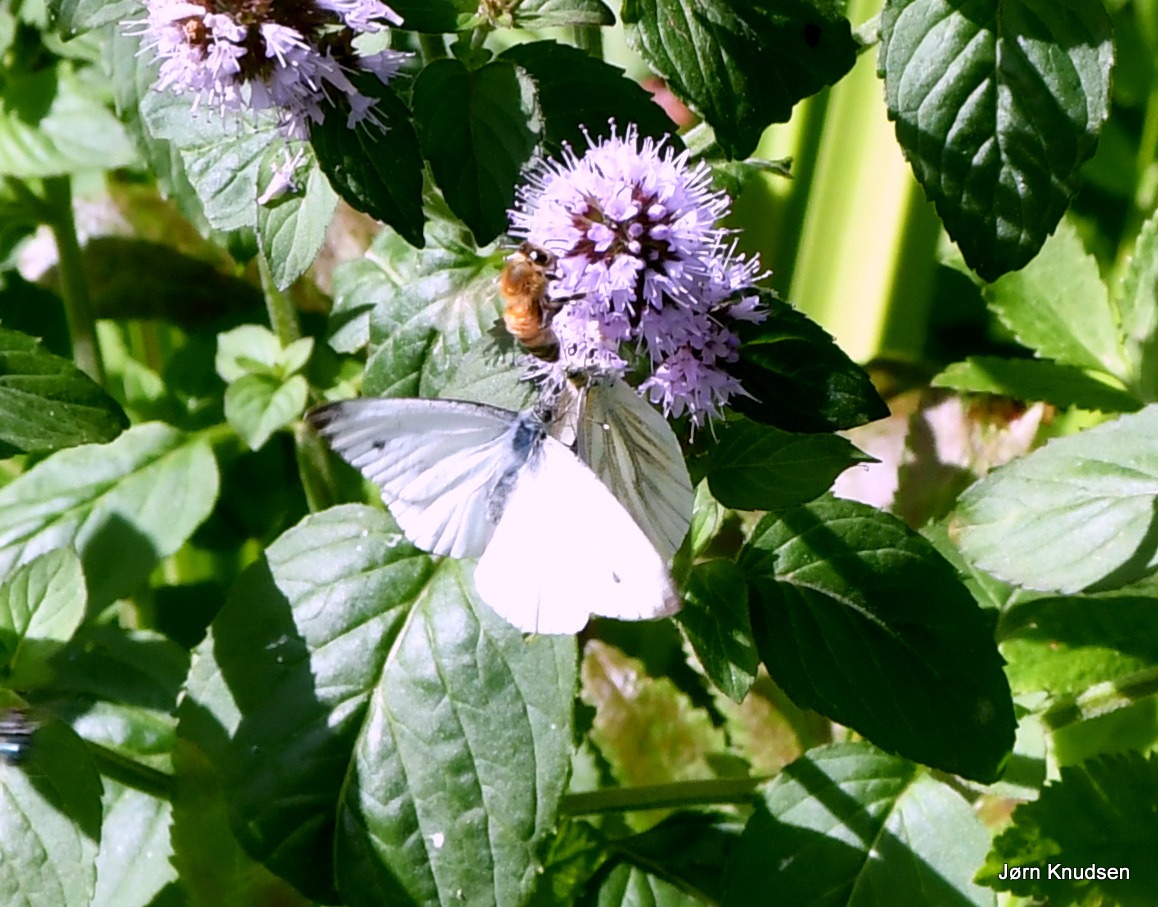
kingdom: Animalia
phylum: Arthropoda
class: Insecta
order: Lepidoptera
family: Pieridae
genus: Pieris
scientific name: Pieris napi
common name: Grønåret kålsommerfugl
